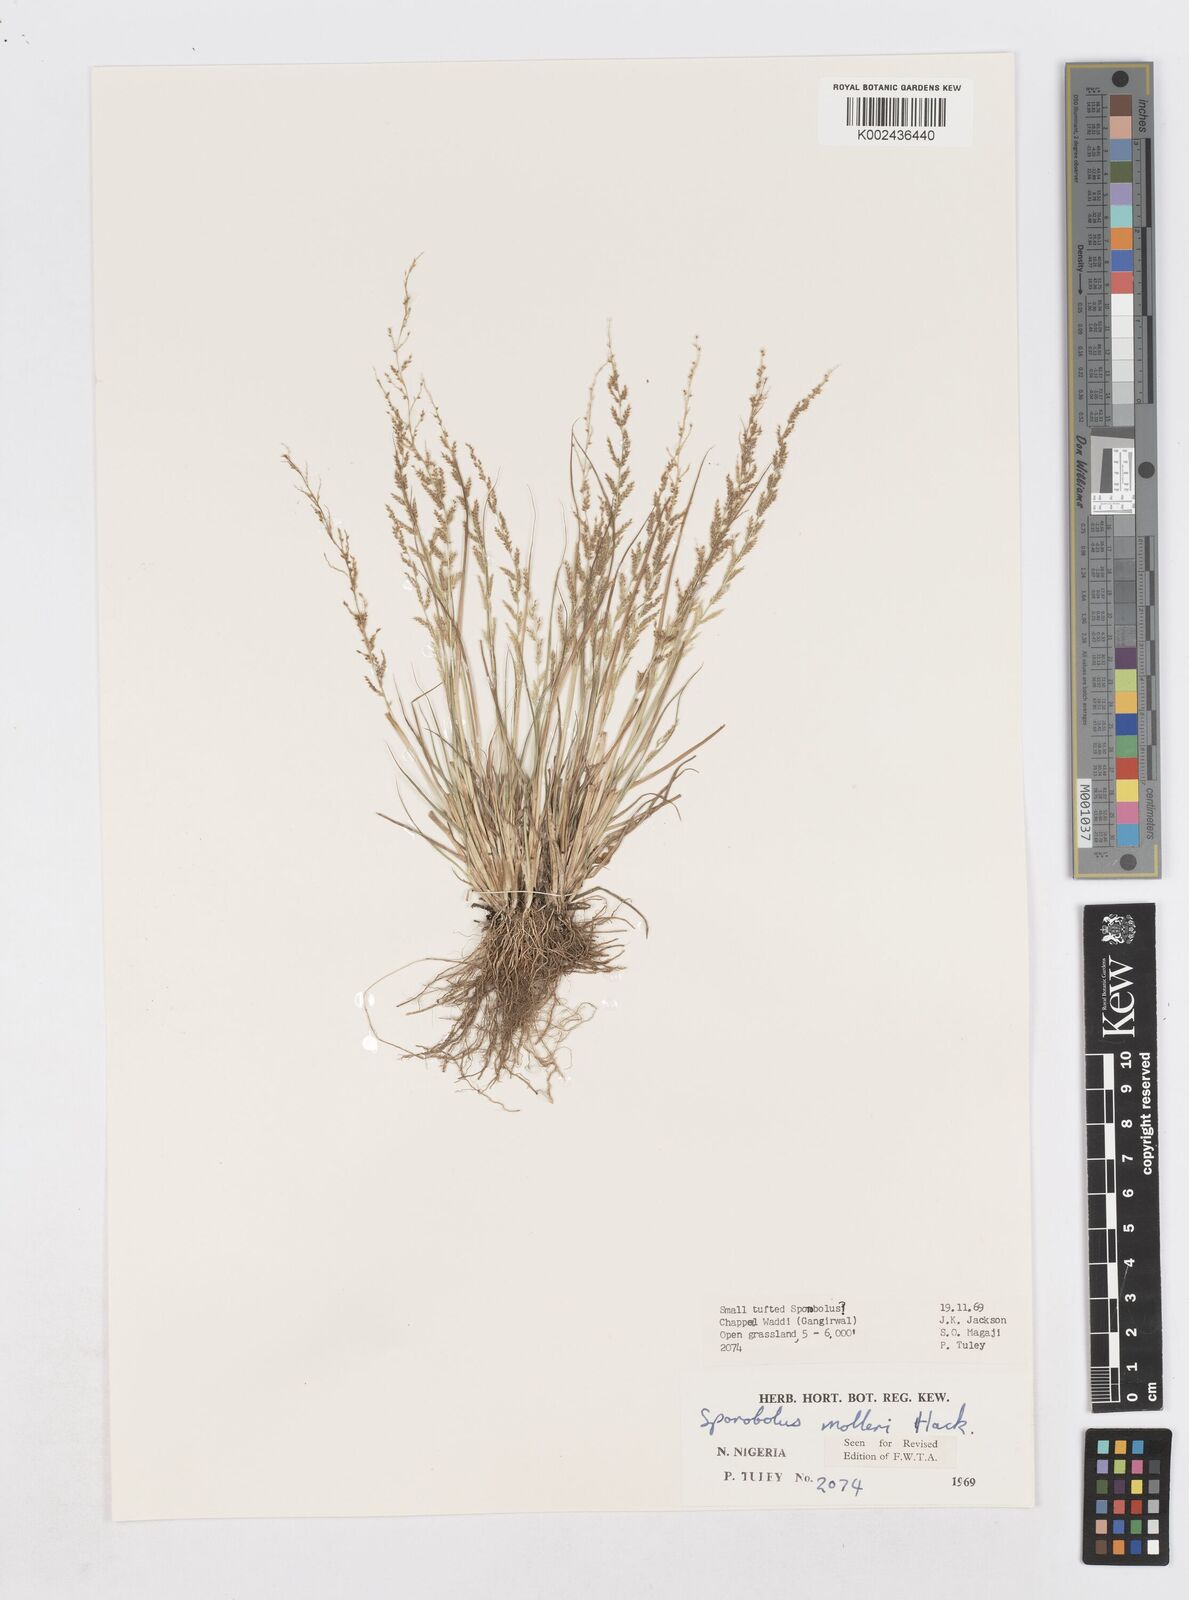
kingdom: Plantae
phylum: Tracheophyta
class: Liliopsida
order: Poales
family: Poaceae
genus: Sporobolus
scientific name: Sporobolus molleri
